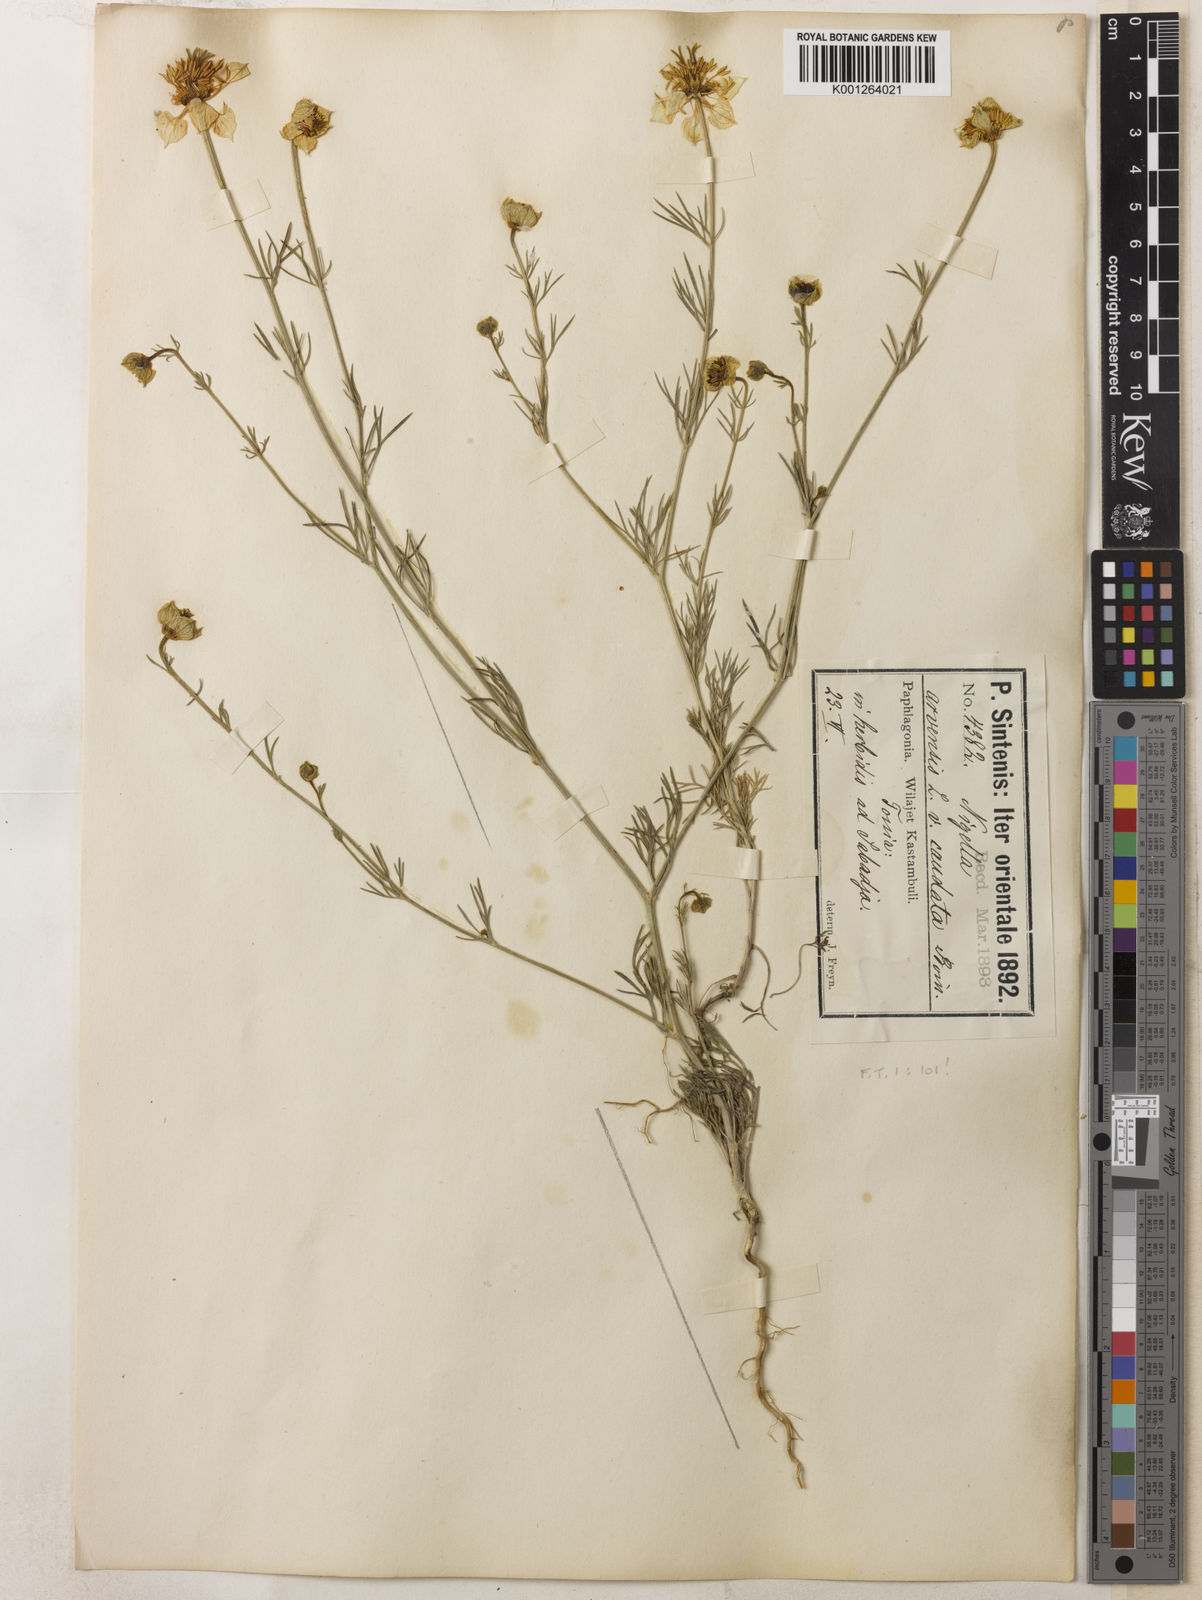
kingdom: Plantae
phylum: Tracheophyta
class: Magnoliopsida
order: Ranunculales
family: Ranunculaceae
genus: Nigella
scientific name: Nigella arvensis
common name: Wild fennel-flower
